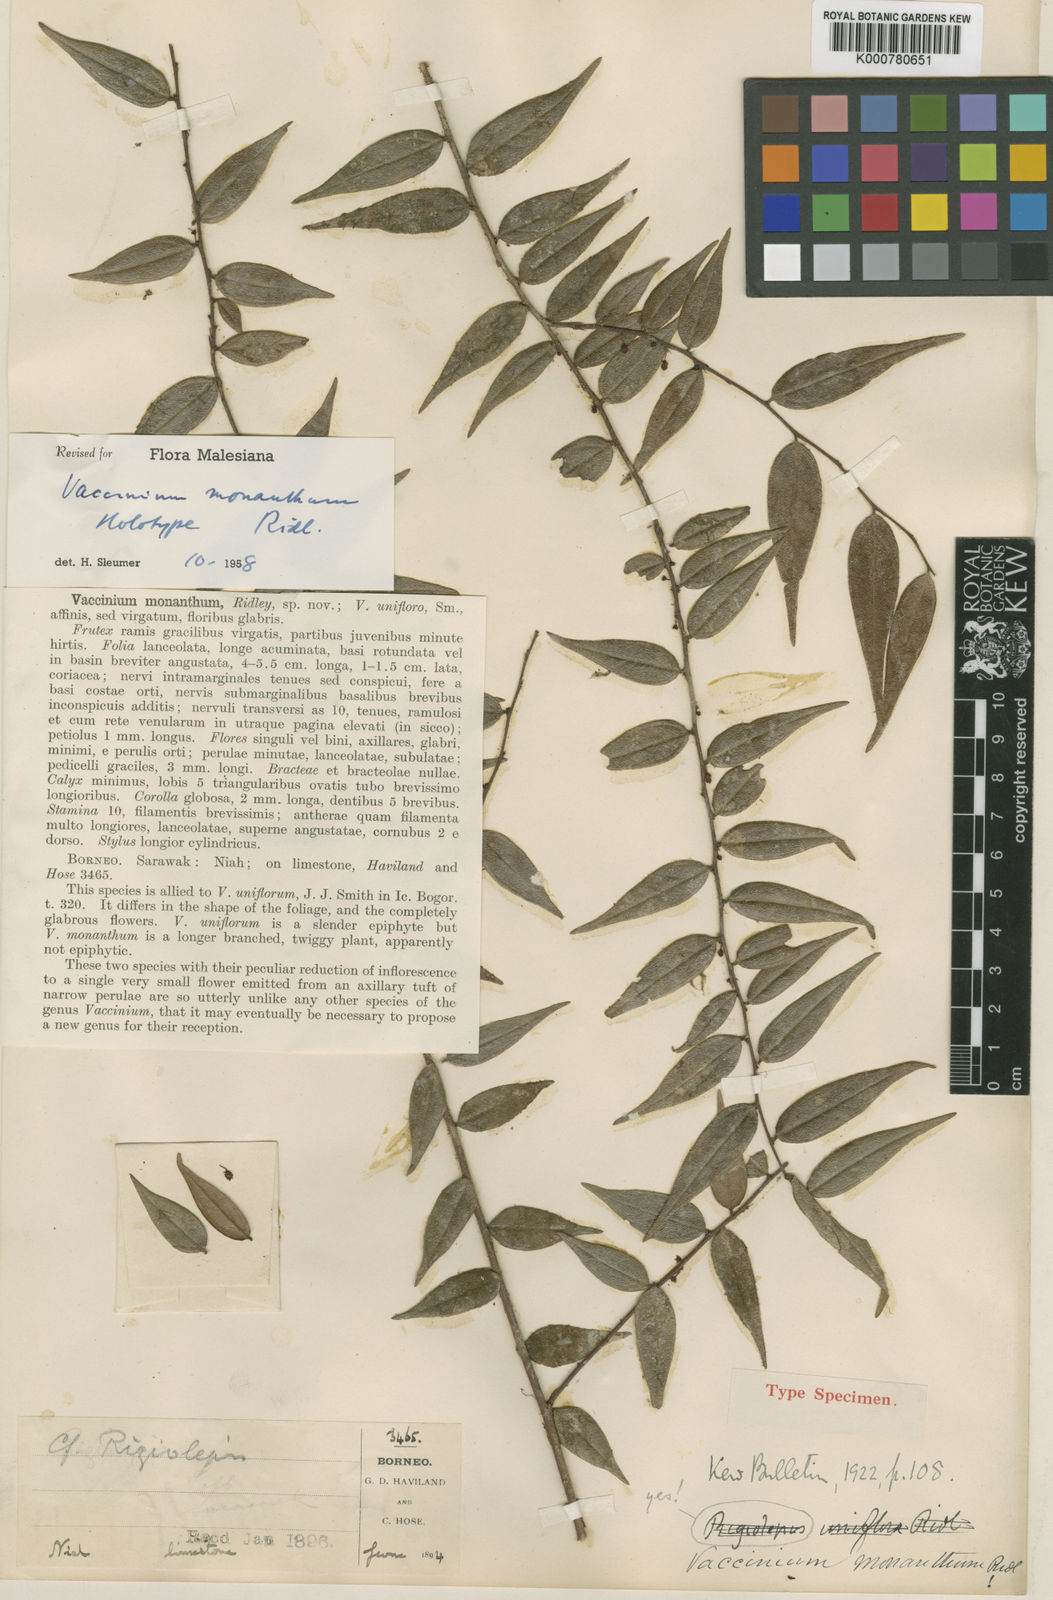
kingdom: Plantae
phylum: Tracheophyta
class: Magnoliopsida
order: Ericales
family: Ericaceae
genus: Rigiolepis
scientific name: Rigiolepis uniflora
